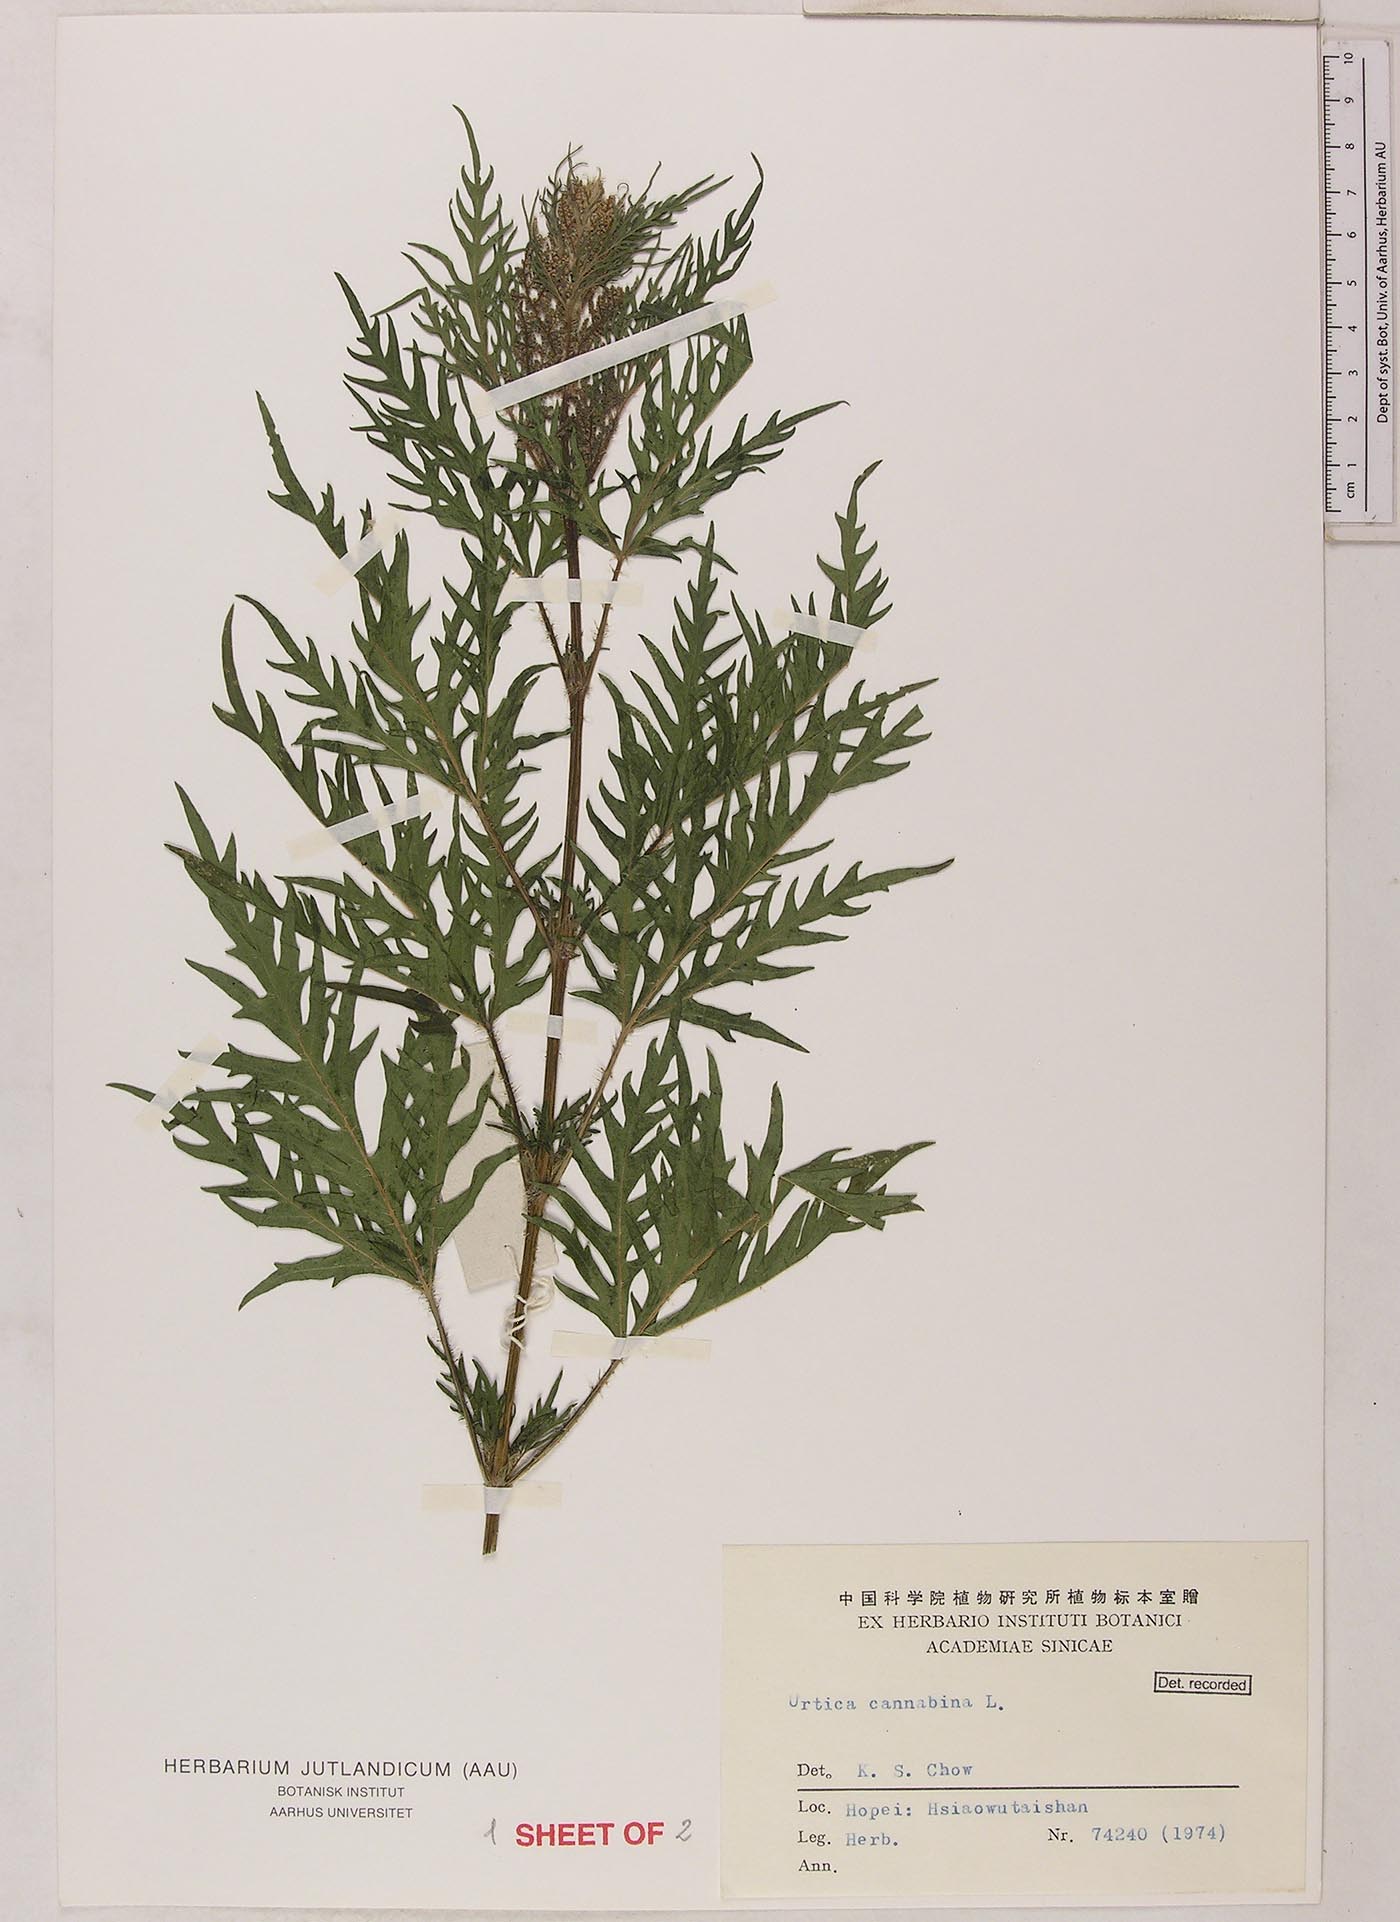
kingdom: Plantae
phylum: Tracheophyta
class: Magnoliopsida
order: Rosales
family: Urticaceae
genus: Urtica
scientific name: Urtica cannabina
